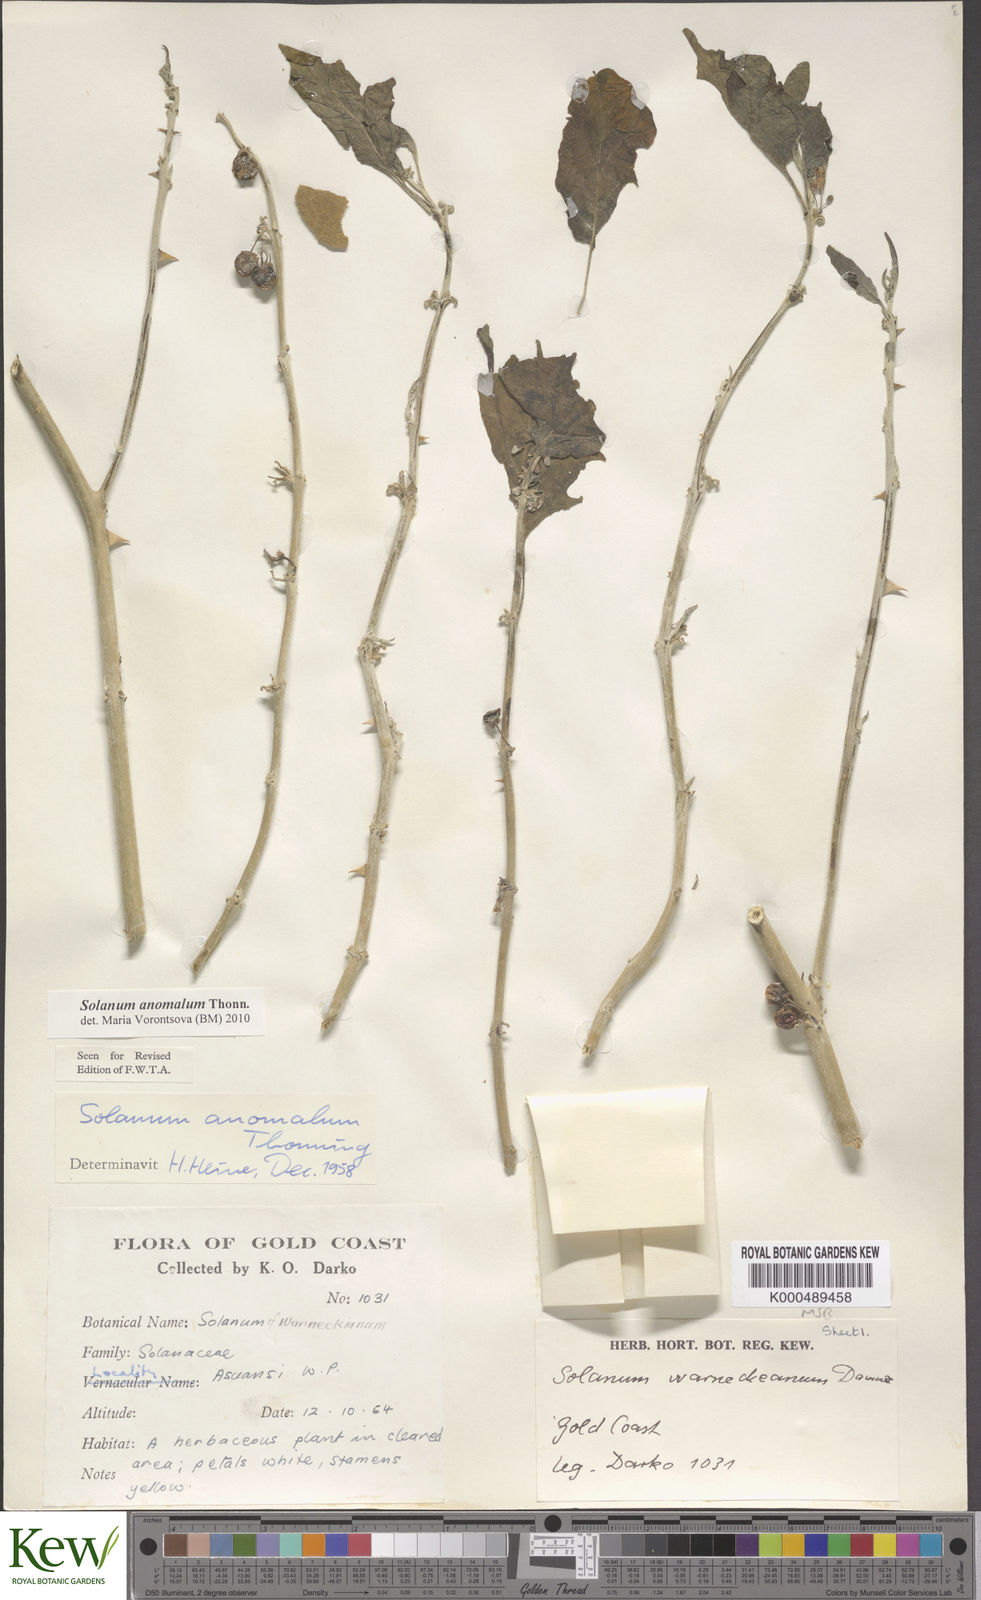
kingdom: Plantae
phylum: Tracheophyta
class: Magnoliopsida
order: Solanales
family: Solanaceae
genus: Solanum
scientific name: Solanum anomalum
